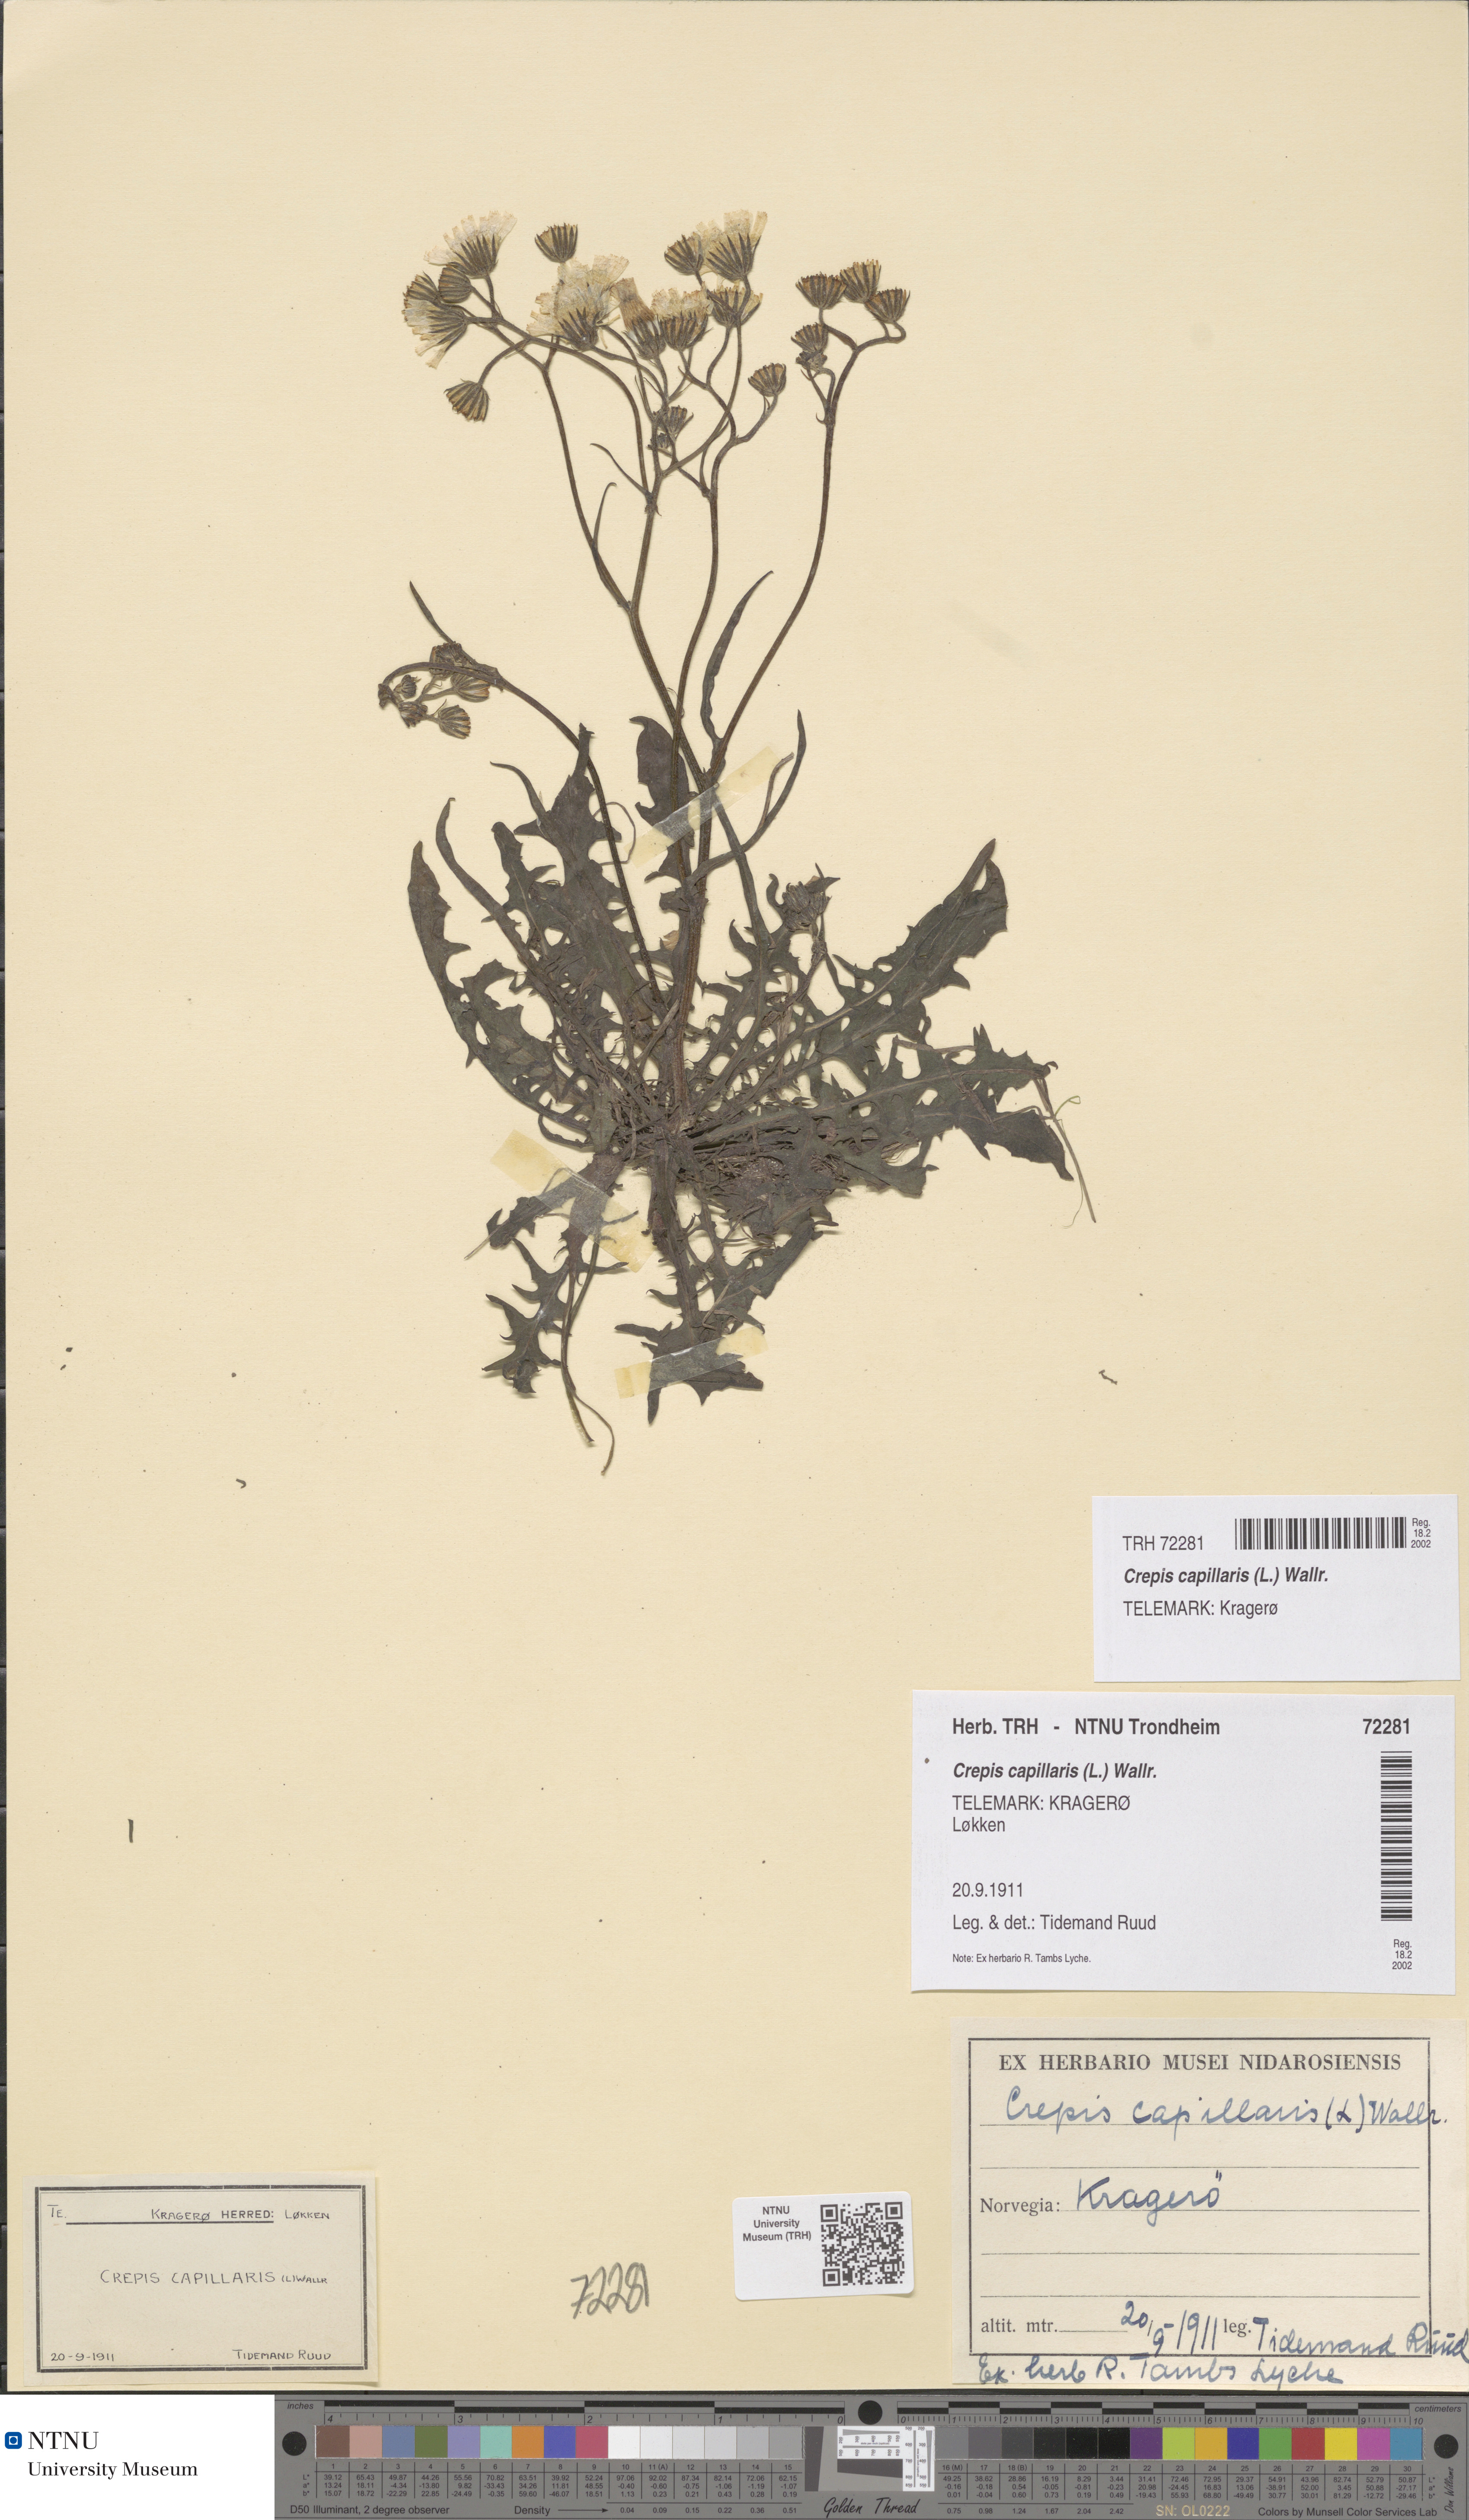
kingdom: Plantae
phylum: Tracheophyta
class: Magnoliopsida
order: Asterales
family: Asteraceae
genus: Crepis
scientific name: Crepis capillaris
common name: Smooth hawksbeard
